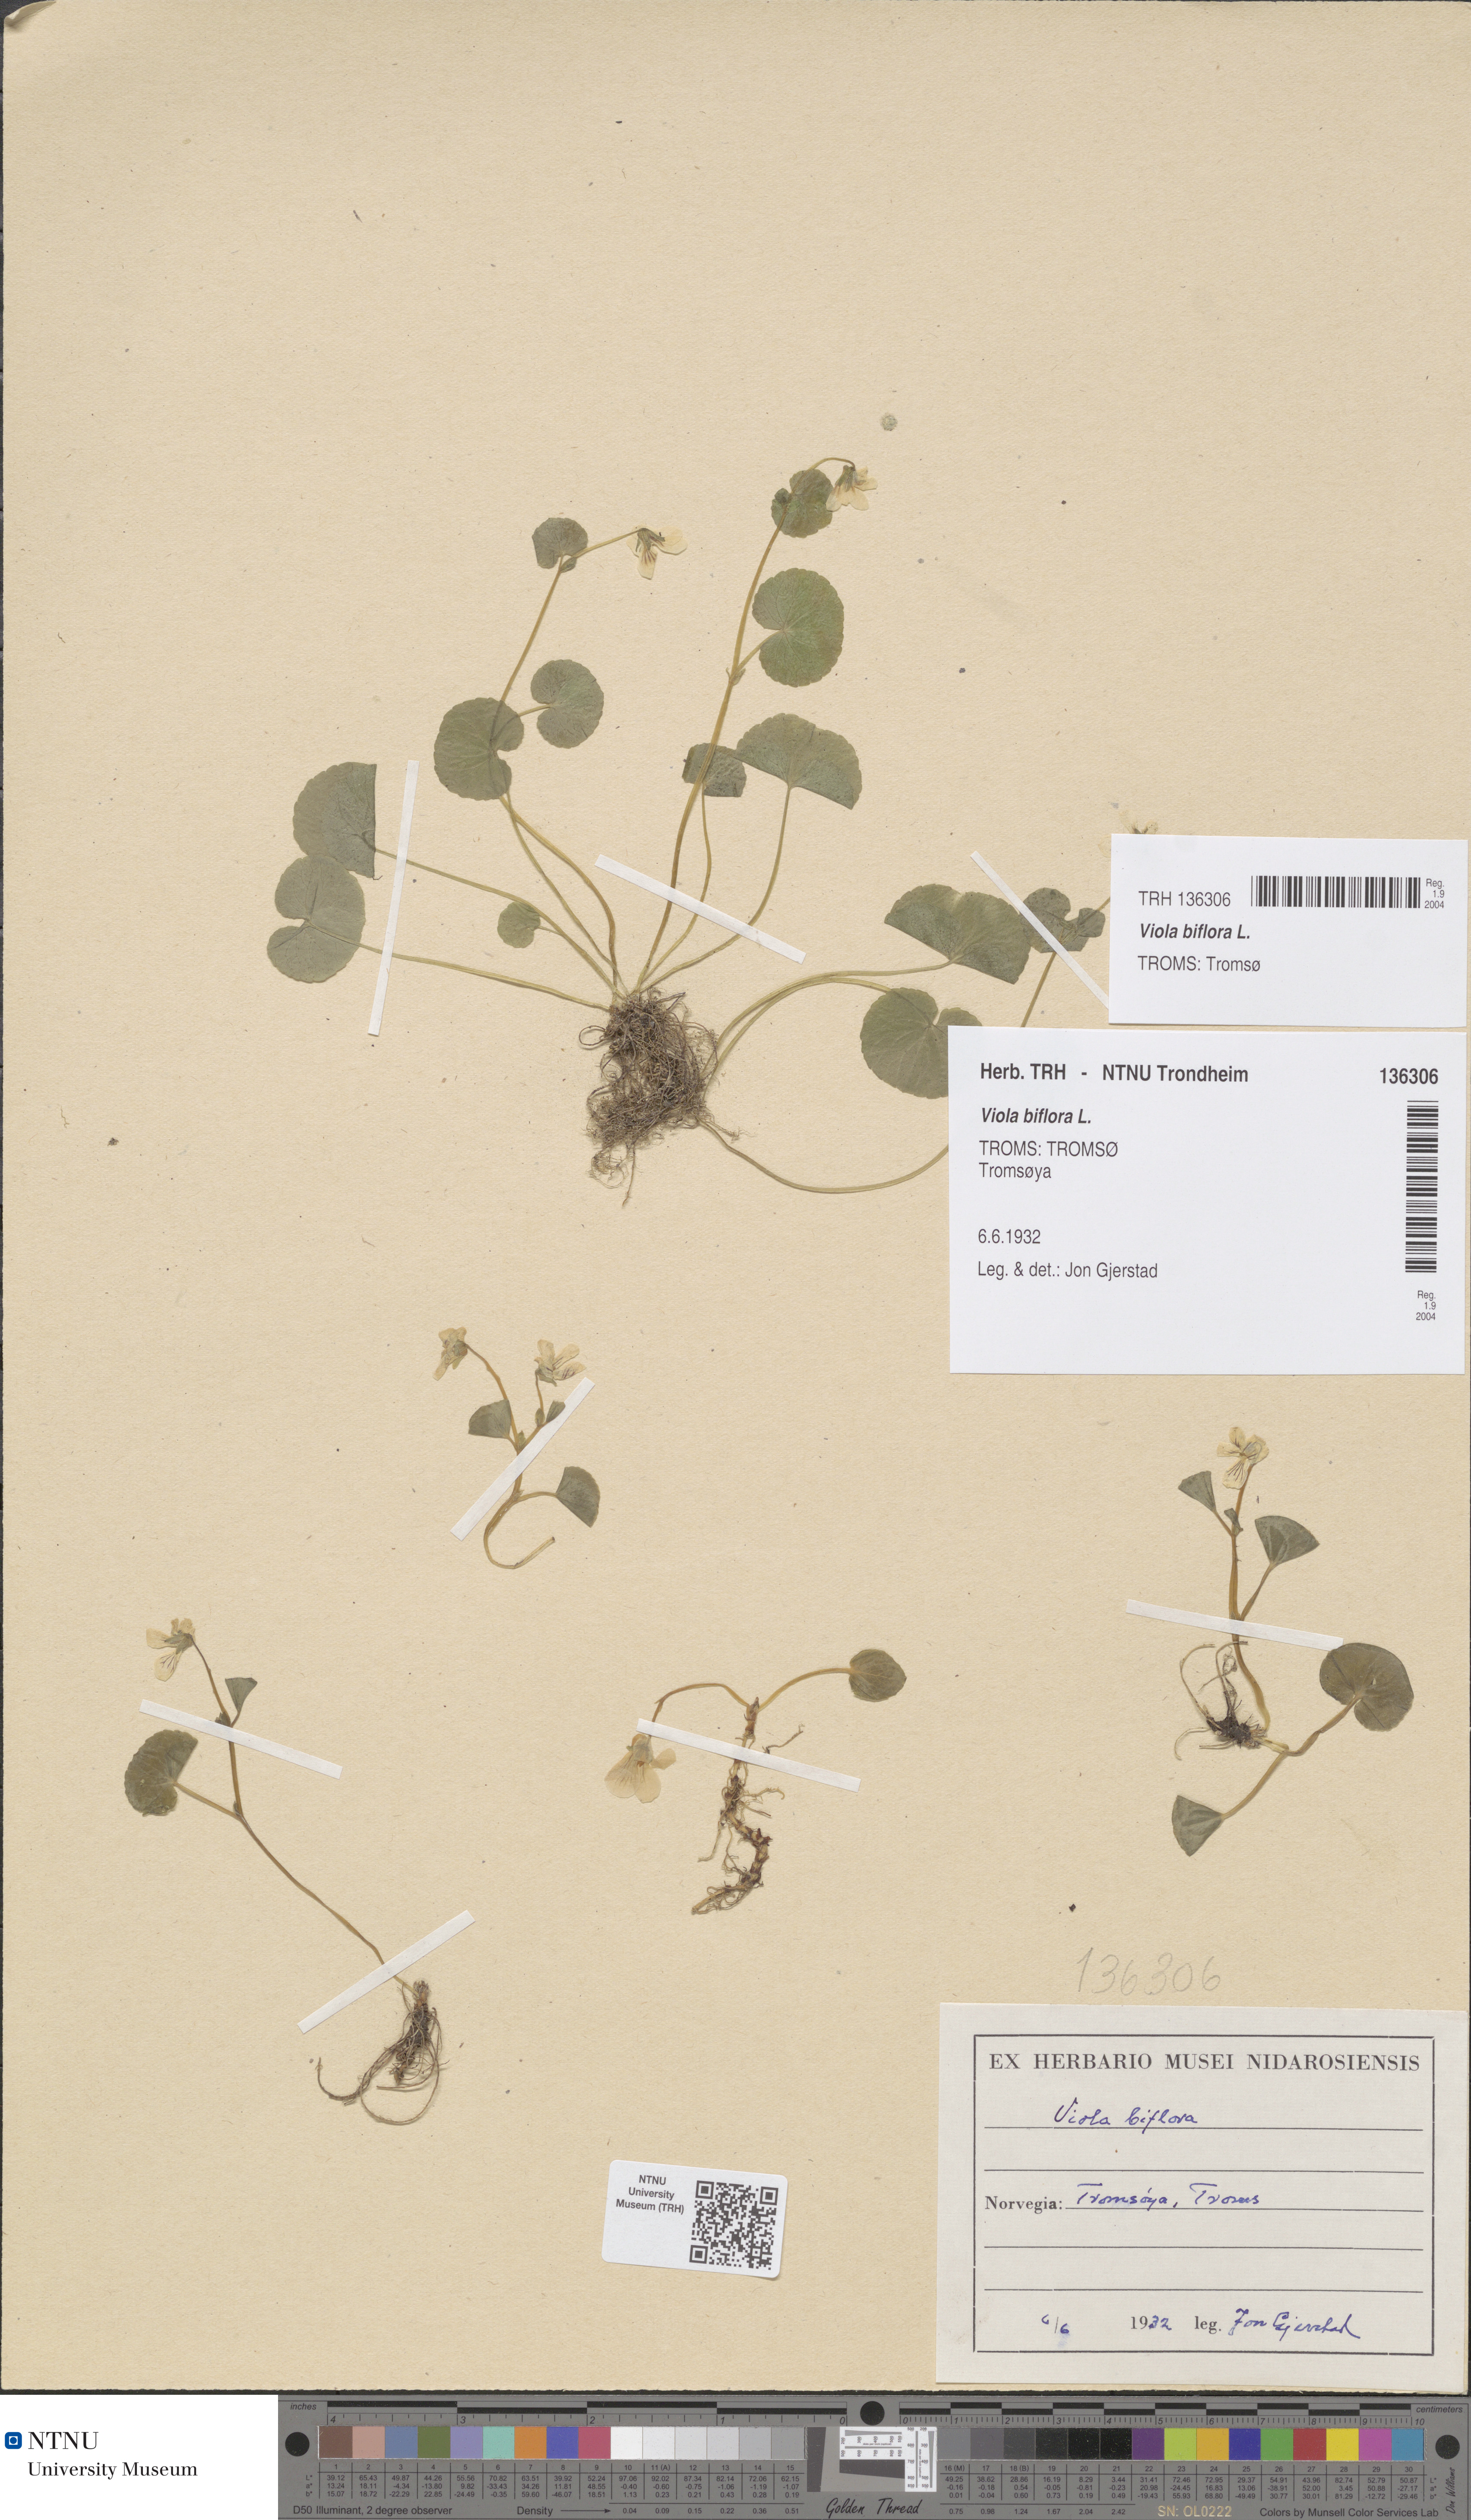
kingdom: Plantae
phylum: Tracheophyta
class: Magnoliopsida
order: Malpighiales
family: Violaceae
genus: Viola
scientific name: Viola biflora
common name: Alpine yellow violet
